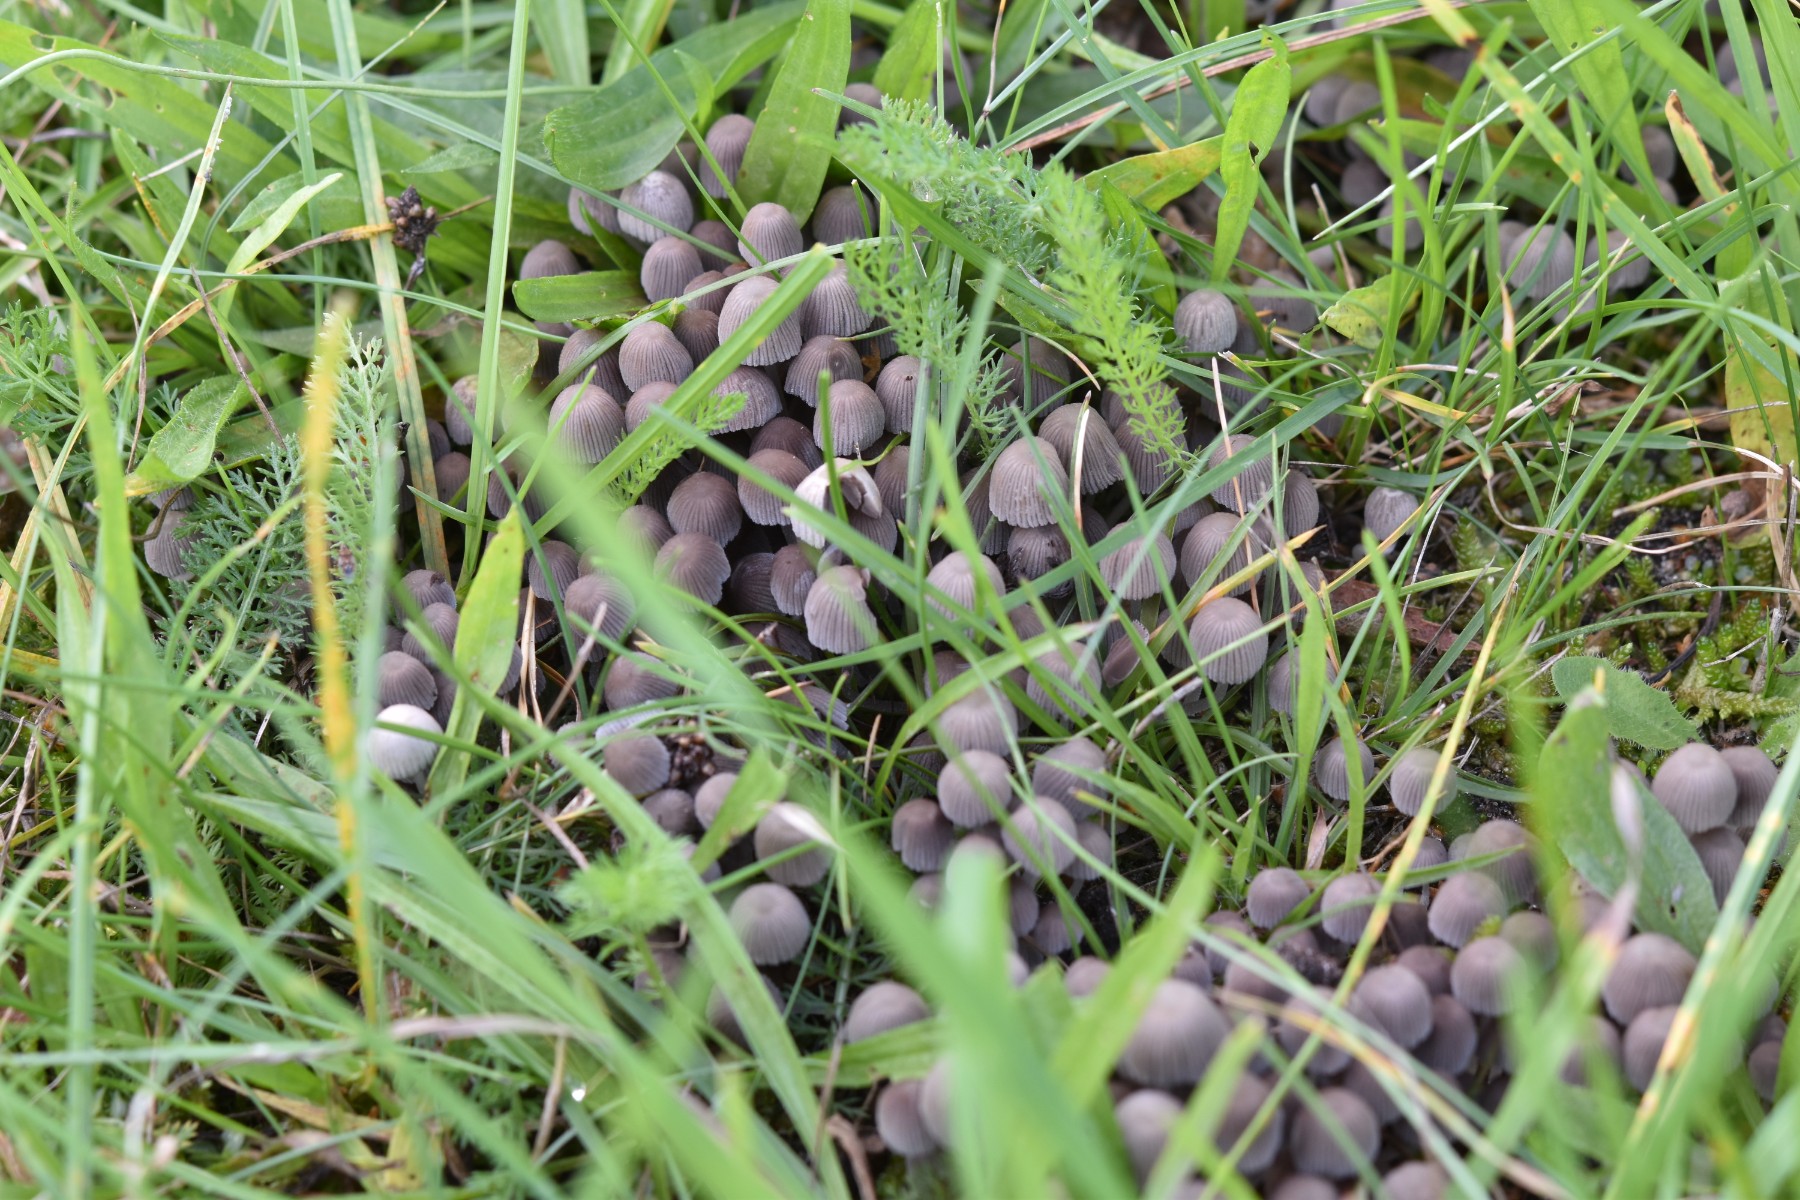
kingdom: Fungi
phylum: Basidiomycota
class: Agaricomycetes
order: Agaricales
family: Psathyrellaceae
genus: Coprinellus
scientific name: Coprinellus disseminatus
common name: bredsået blækhat
